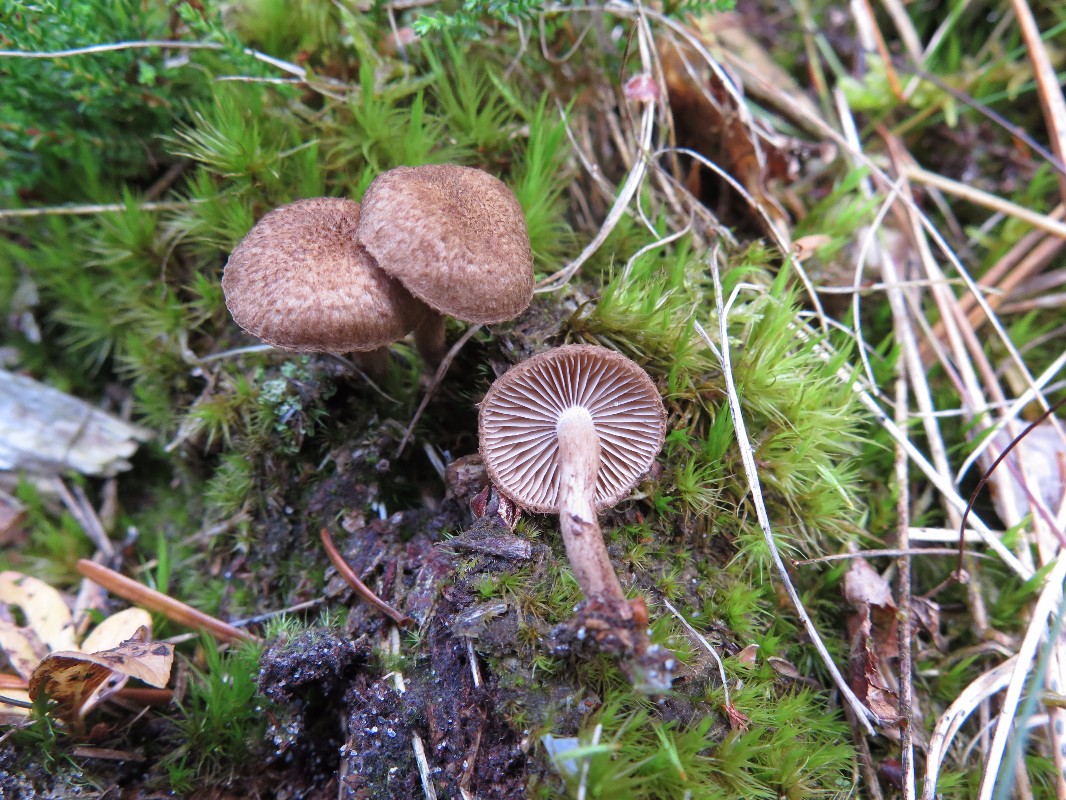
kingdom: Fungi
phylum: Basidiomycota
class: Agaricomycetes
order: Agaricales
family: Inocybaceae
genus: Inocybe
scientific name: Inocybe stellatospora
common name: spidsskællet trævlhat
